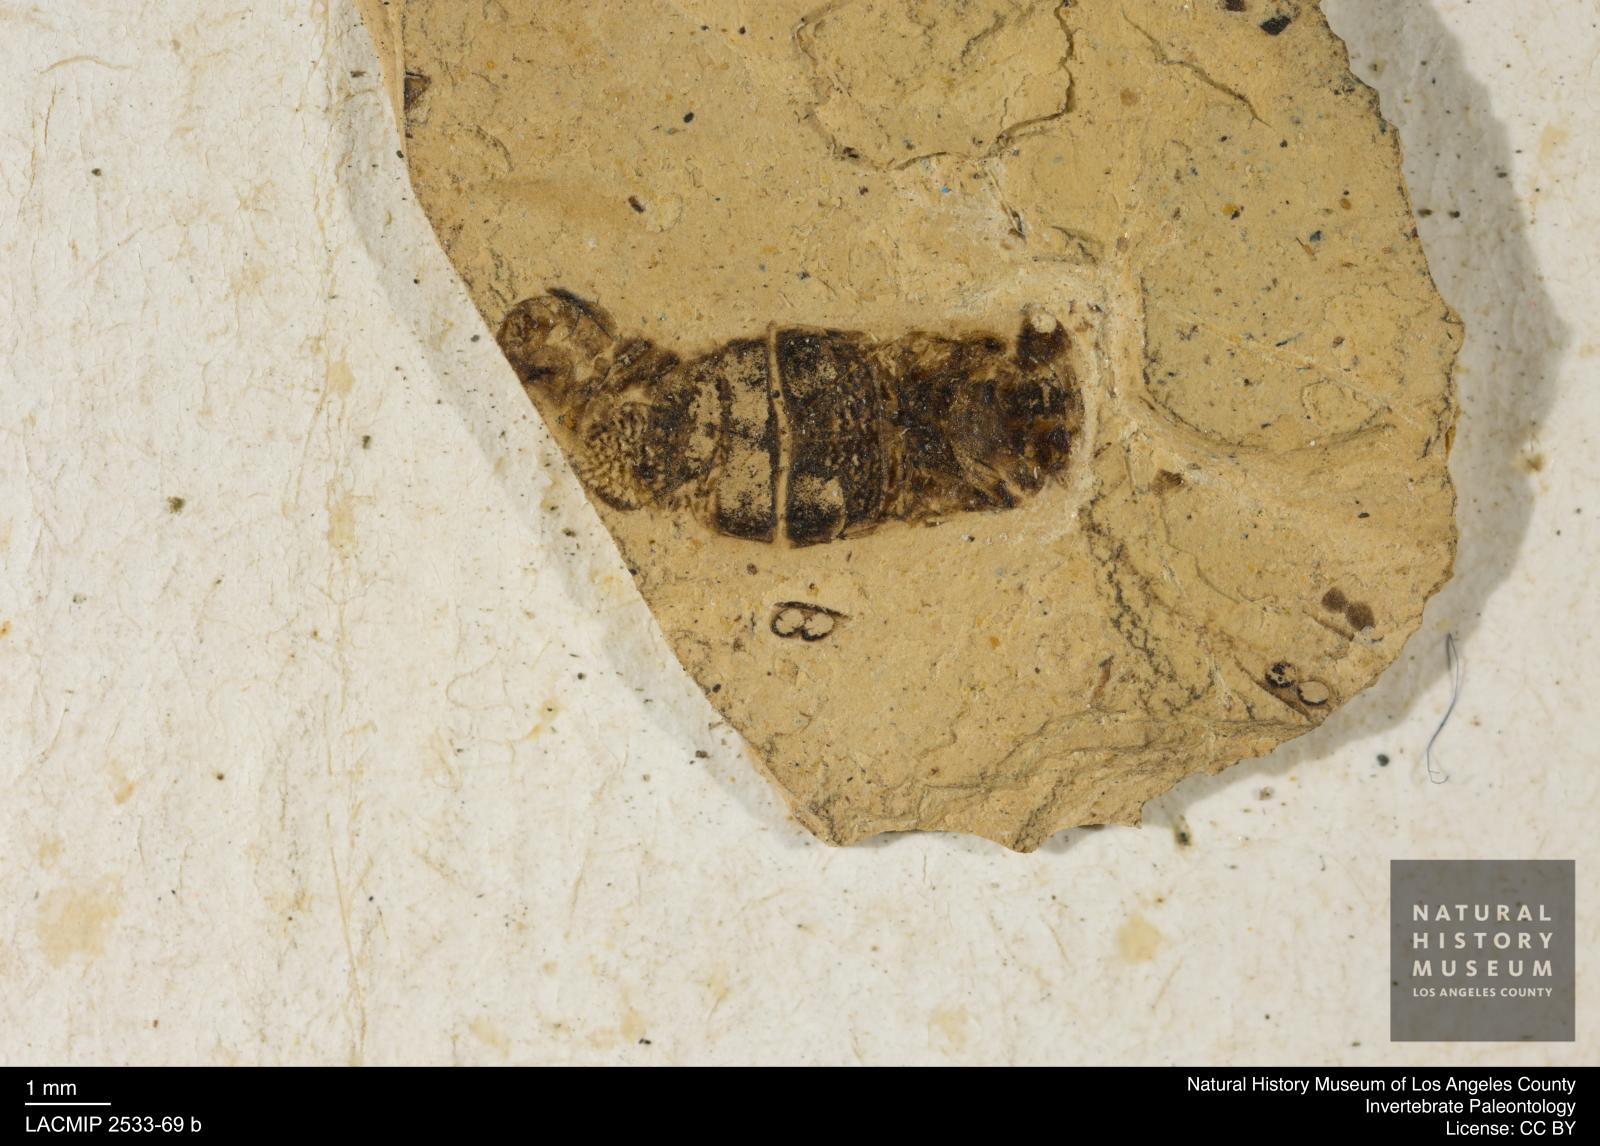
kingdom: Animalia
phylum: Arthropoda
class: Insecta
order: Hemiptera
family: Corixidae
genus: Corixa
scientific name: Corixa
